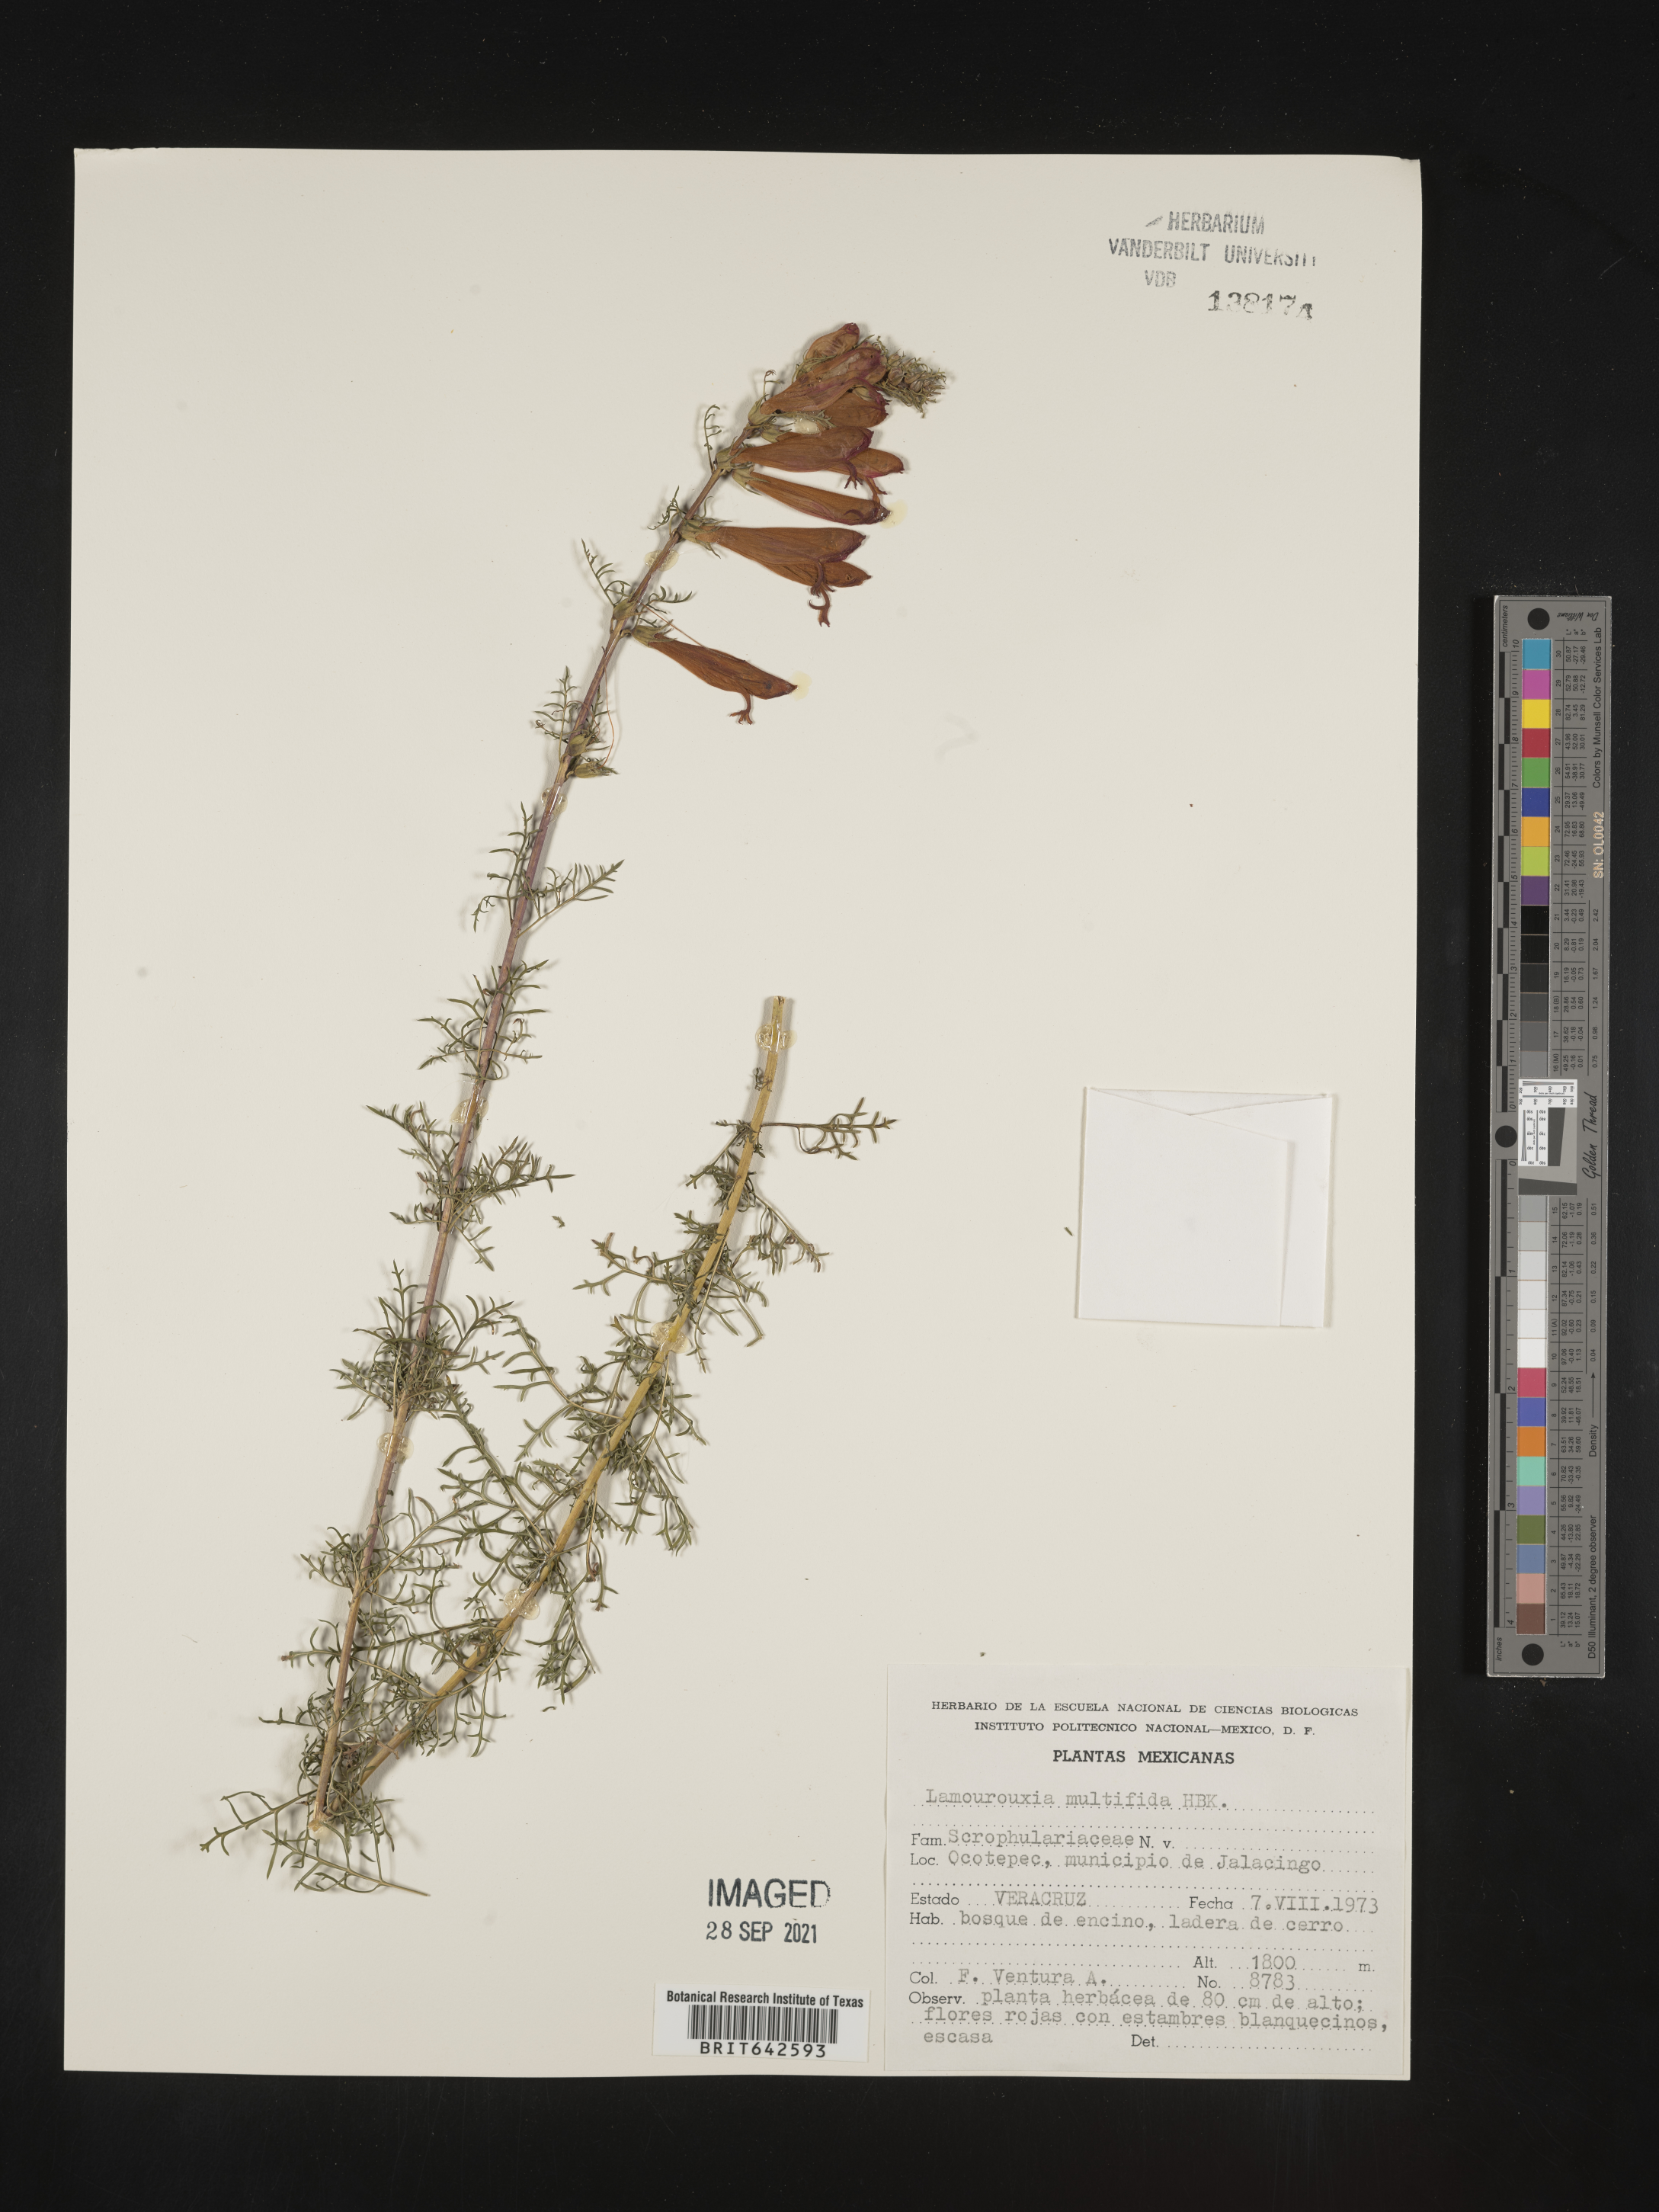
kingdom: Plantae
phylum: Tracheophyta
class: Magnoliopsida
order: Lamiales
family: Orobanchaceae
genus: Lamourouxia
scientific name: Lamourouxia
